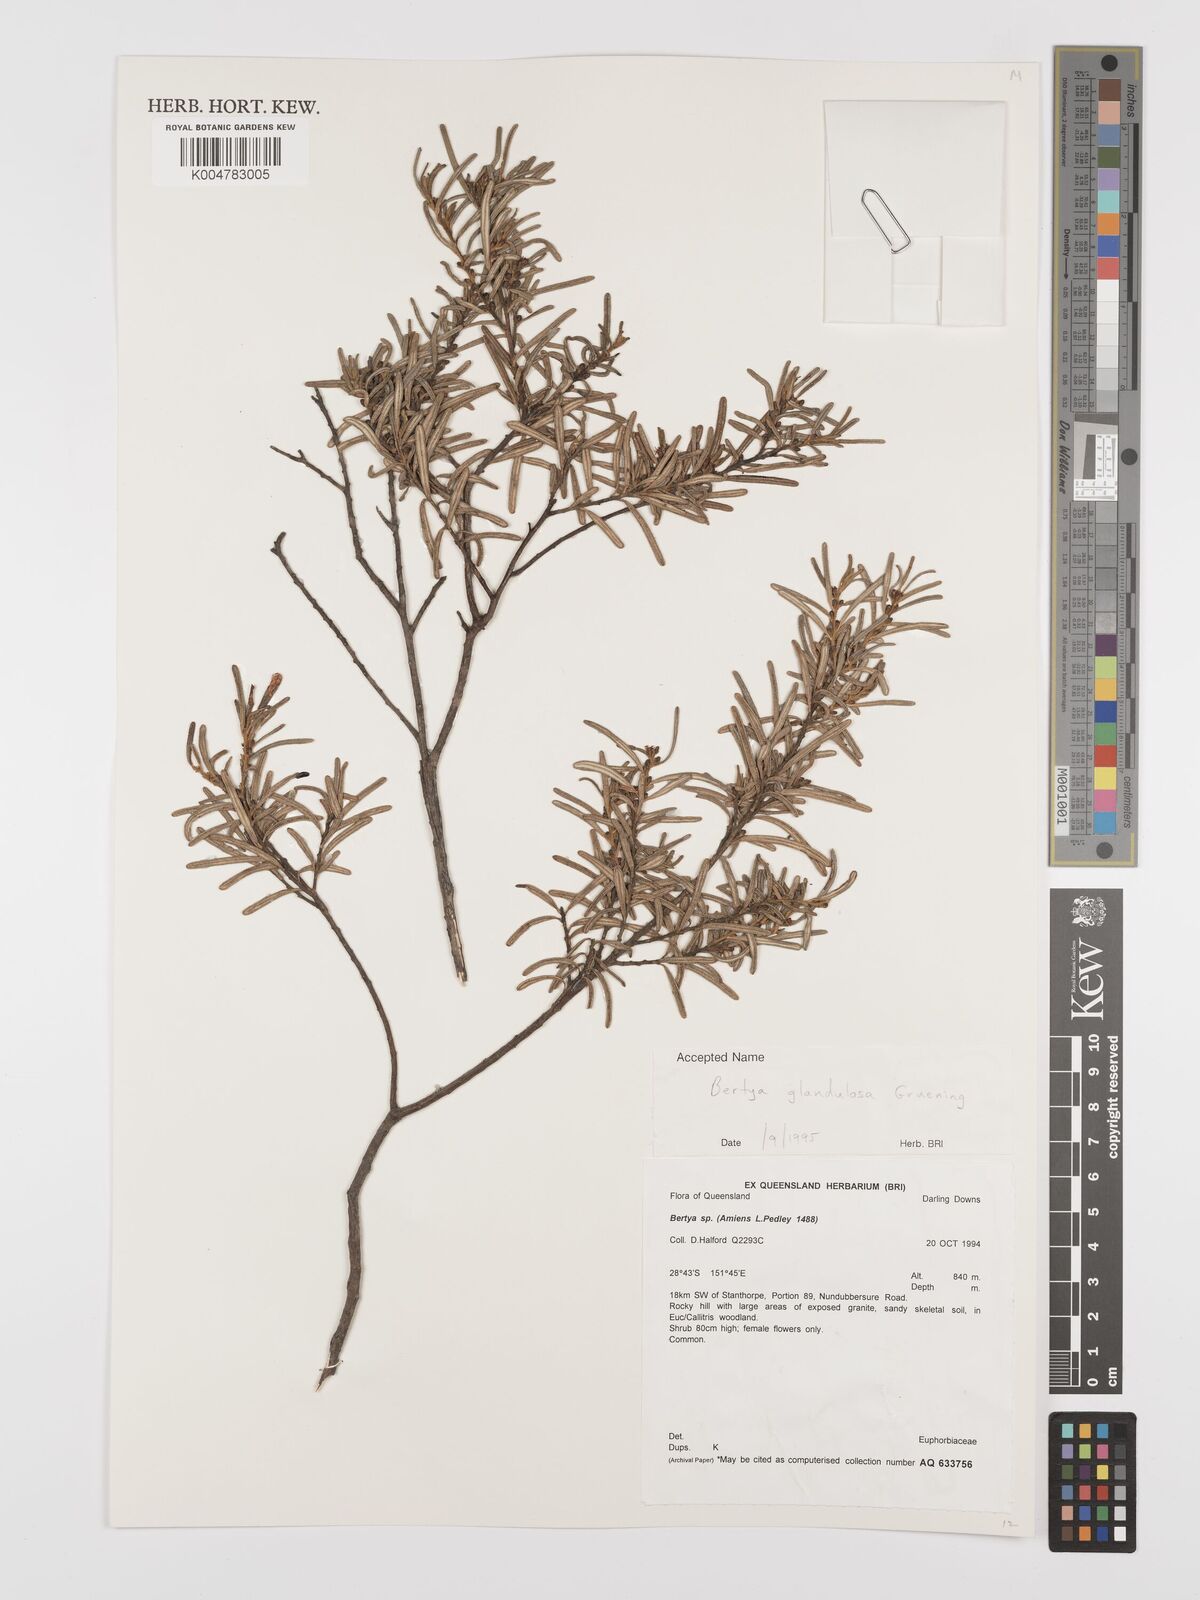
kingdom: Plantae
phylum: Tracheophyta
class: Magnoliopsida
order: Malpighiales
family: Euphorbiaceae
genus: Bertya
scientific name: Bertya glandulosa
